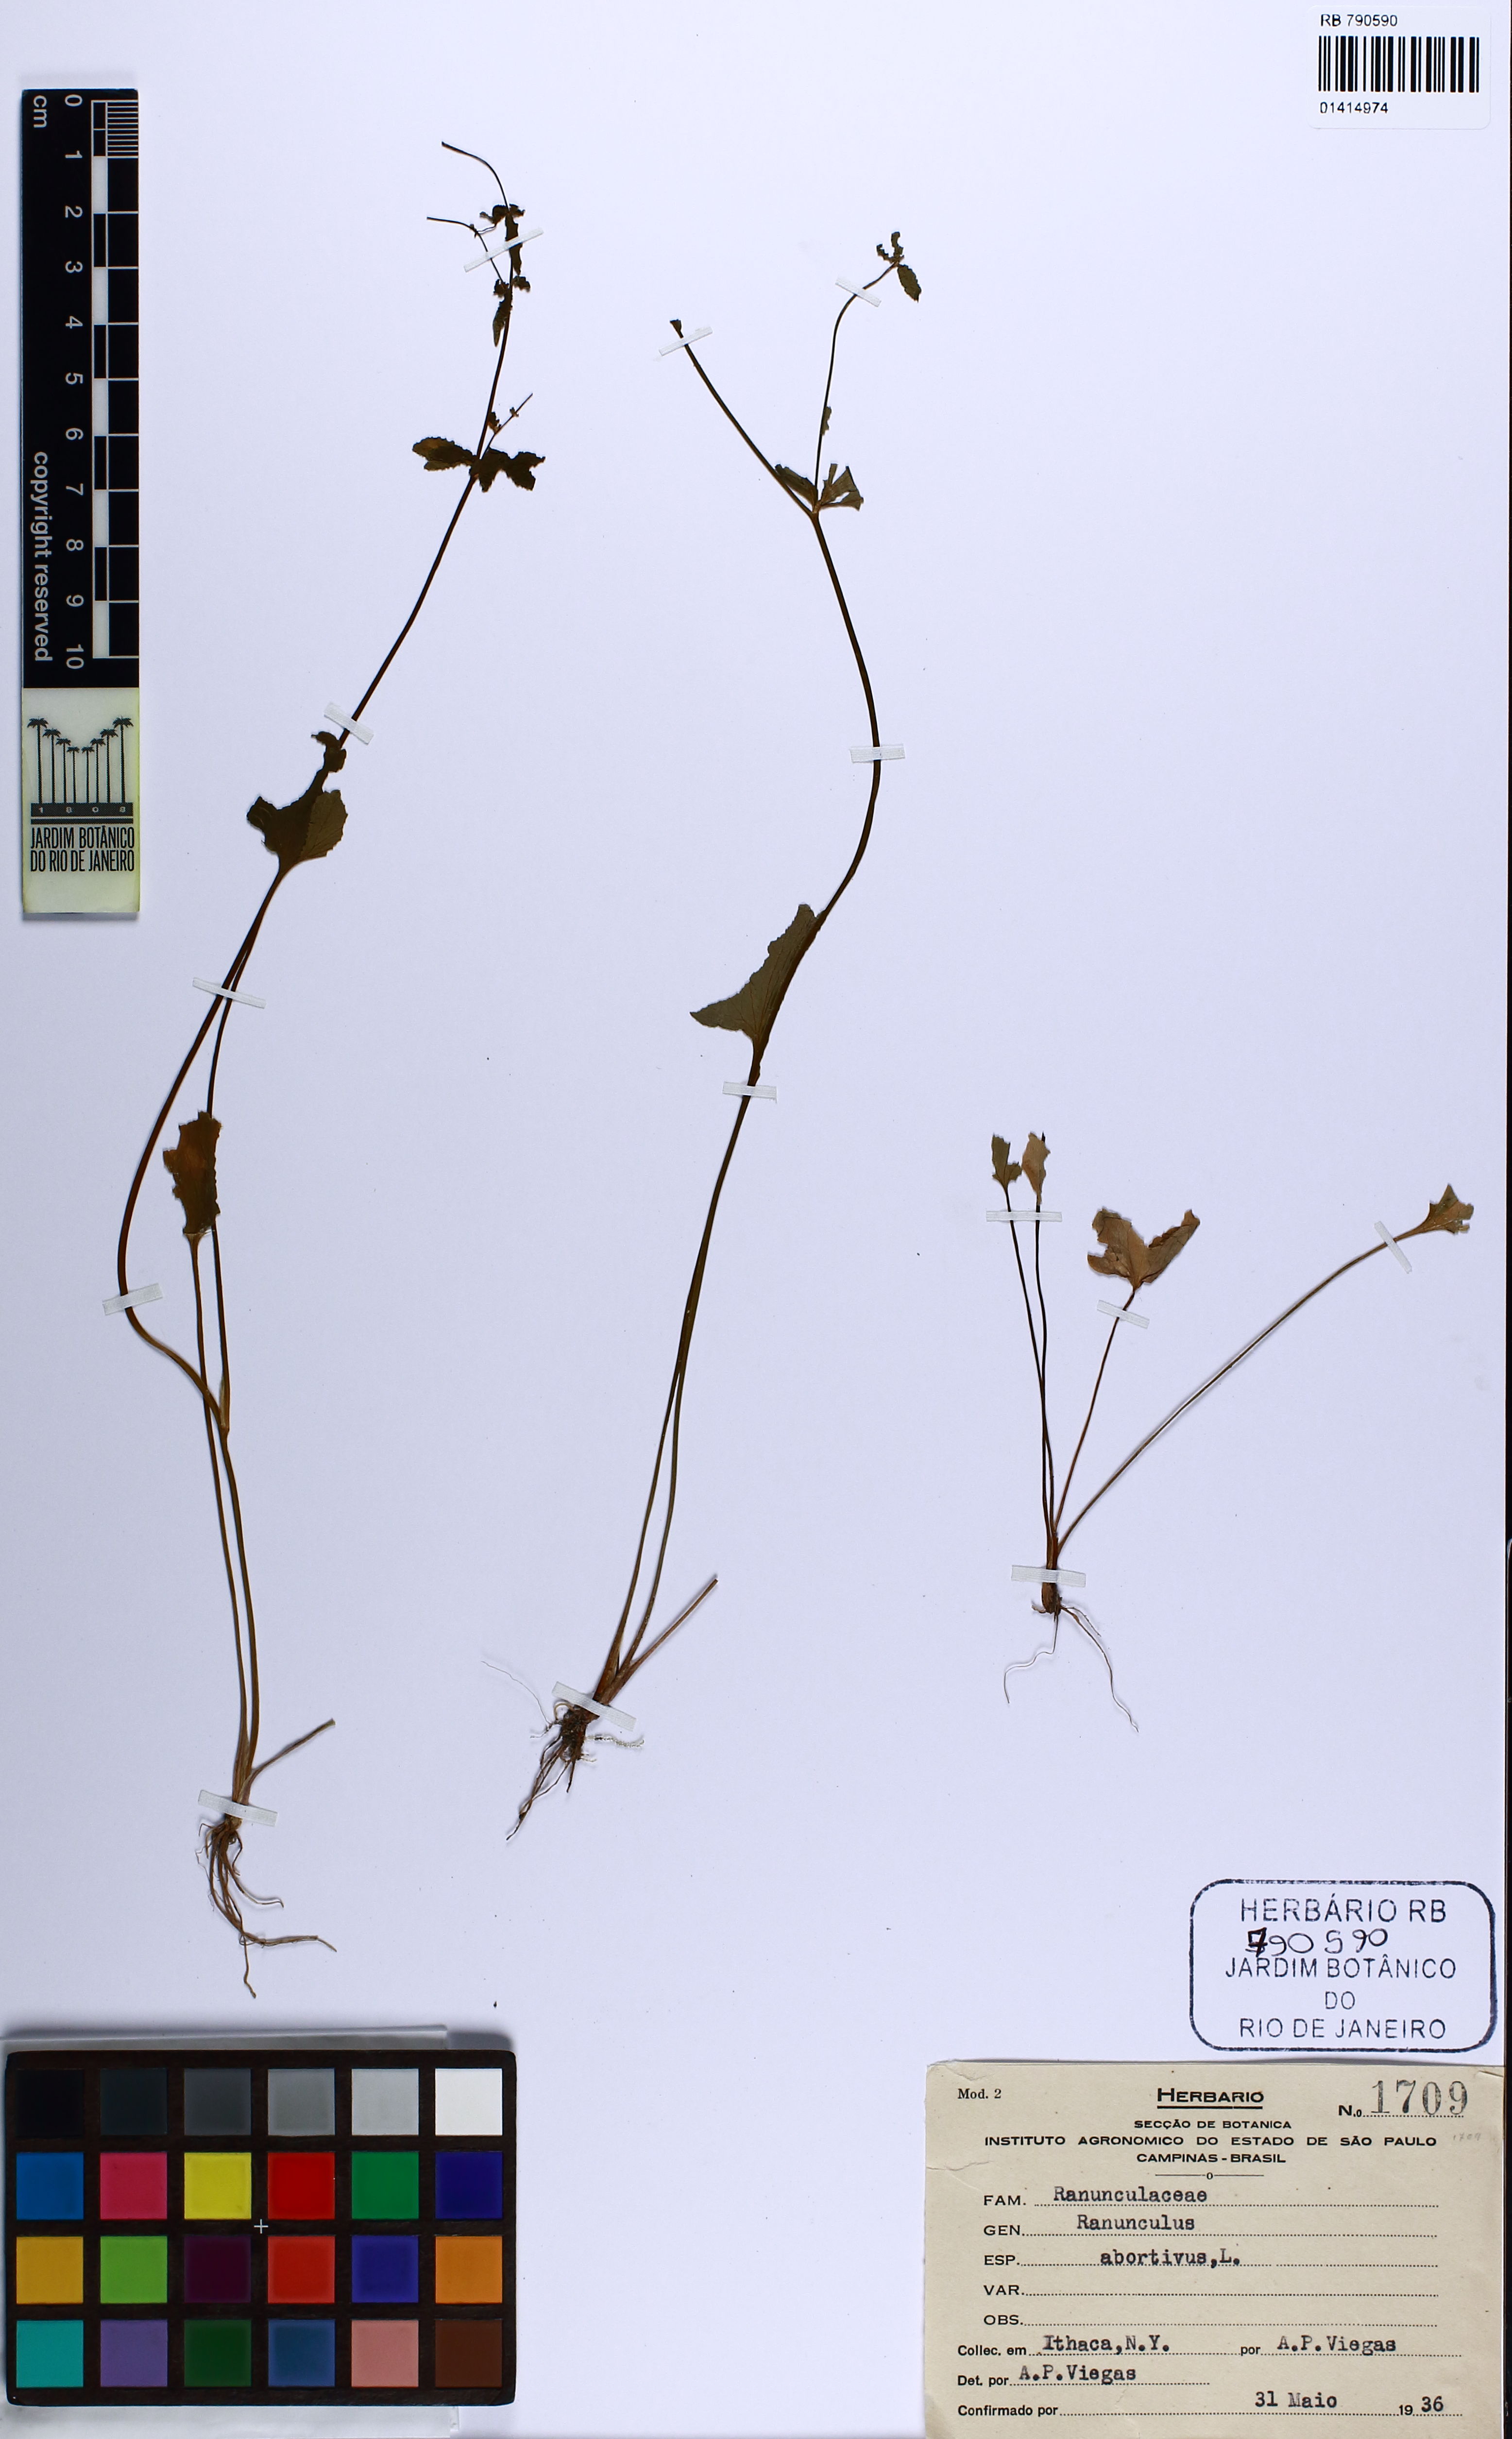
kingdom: Plantae
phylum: Tracheophyta
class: Magnoliopsida
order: Ranunculales
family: Ranunculaceae
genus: Ranunculus
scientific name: Ranunculus abortivus
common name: Early wood buttercup
